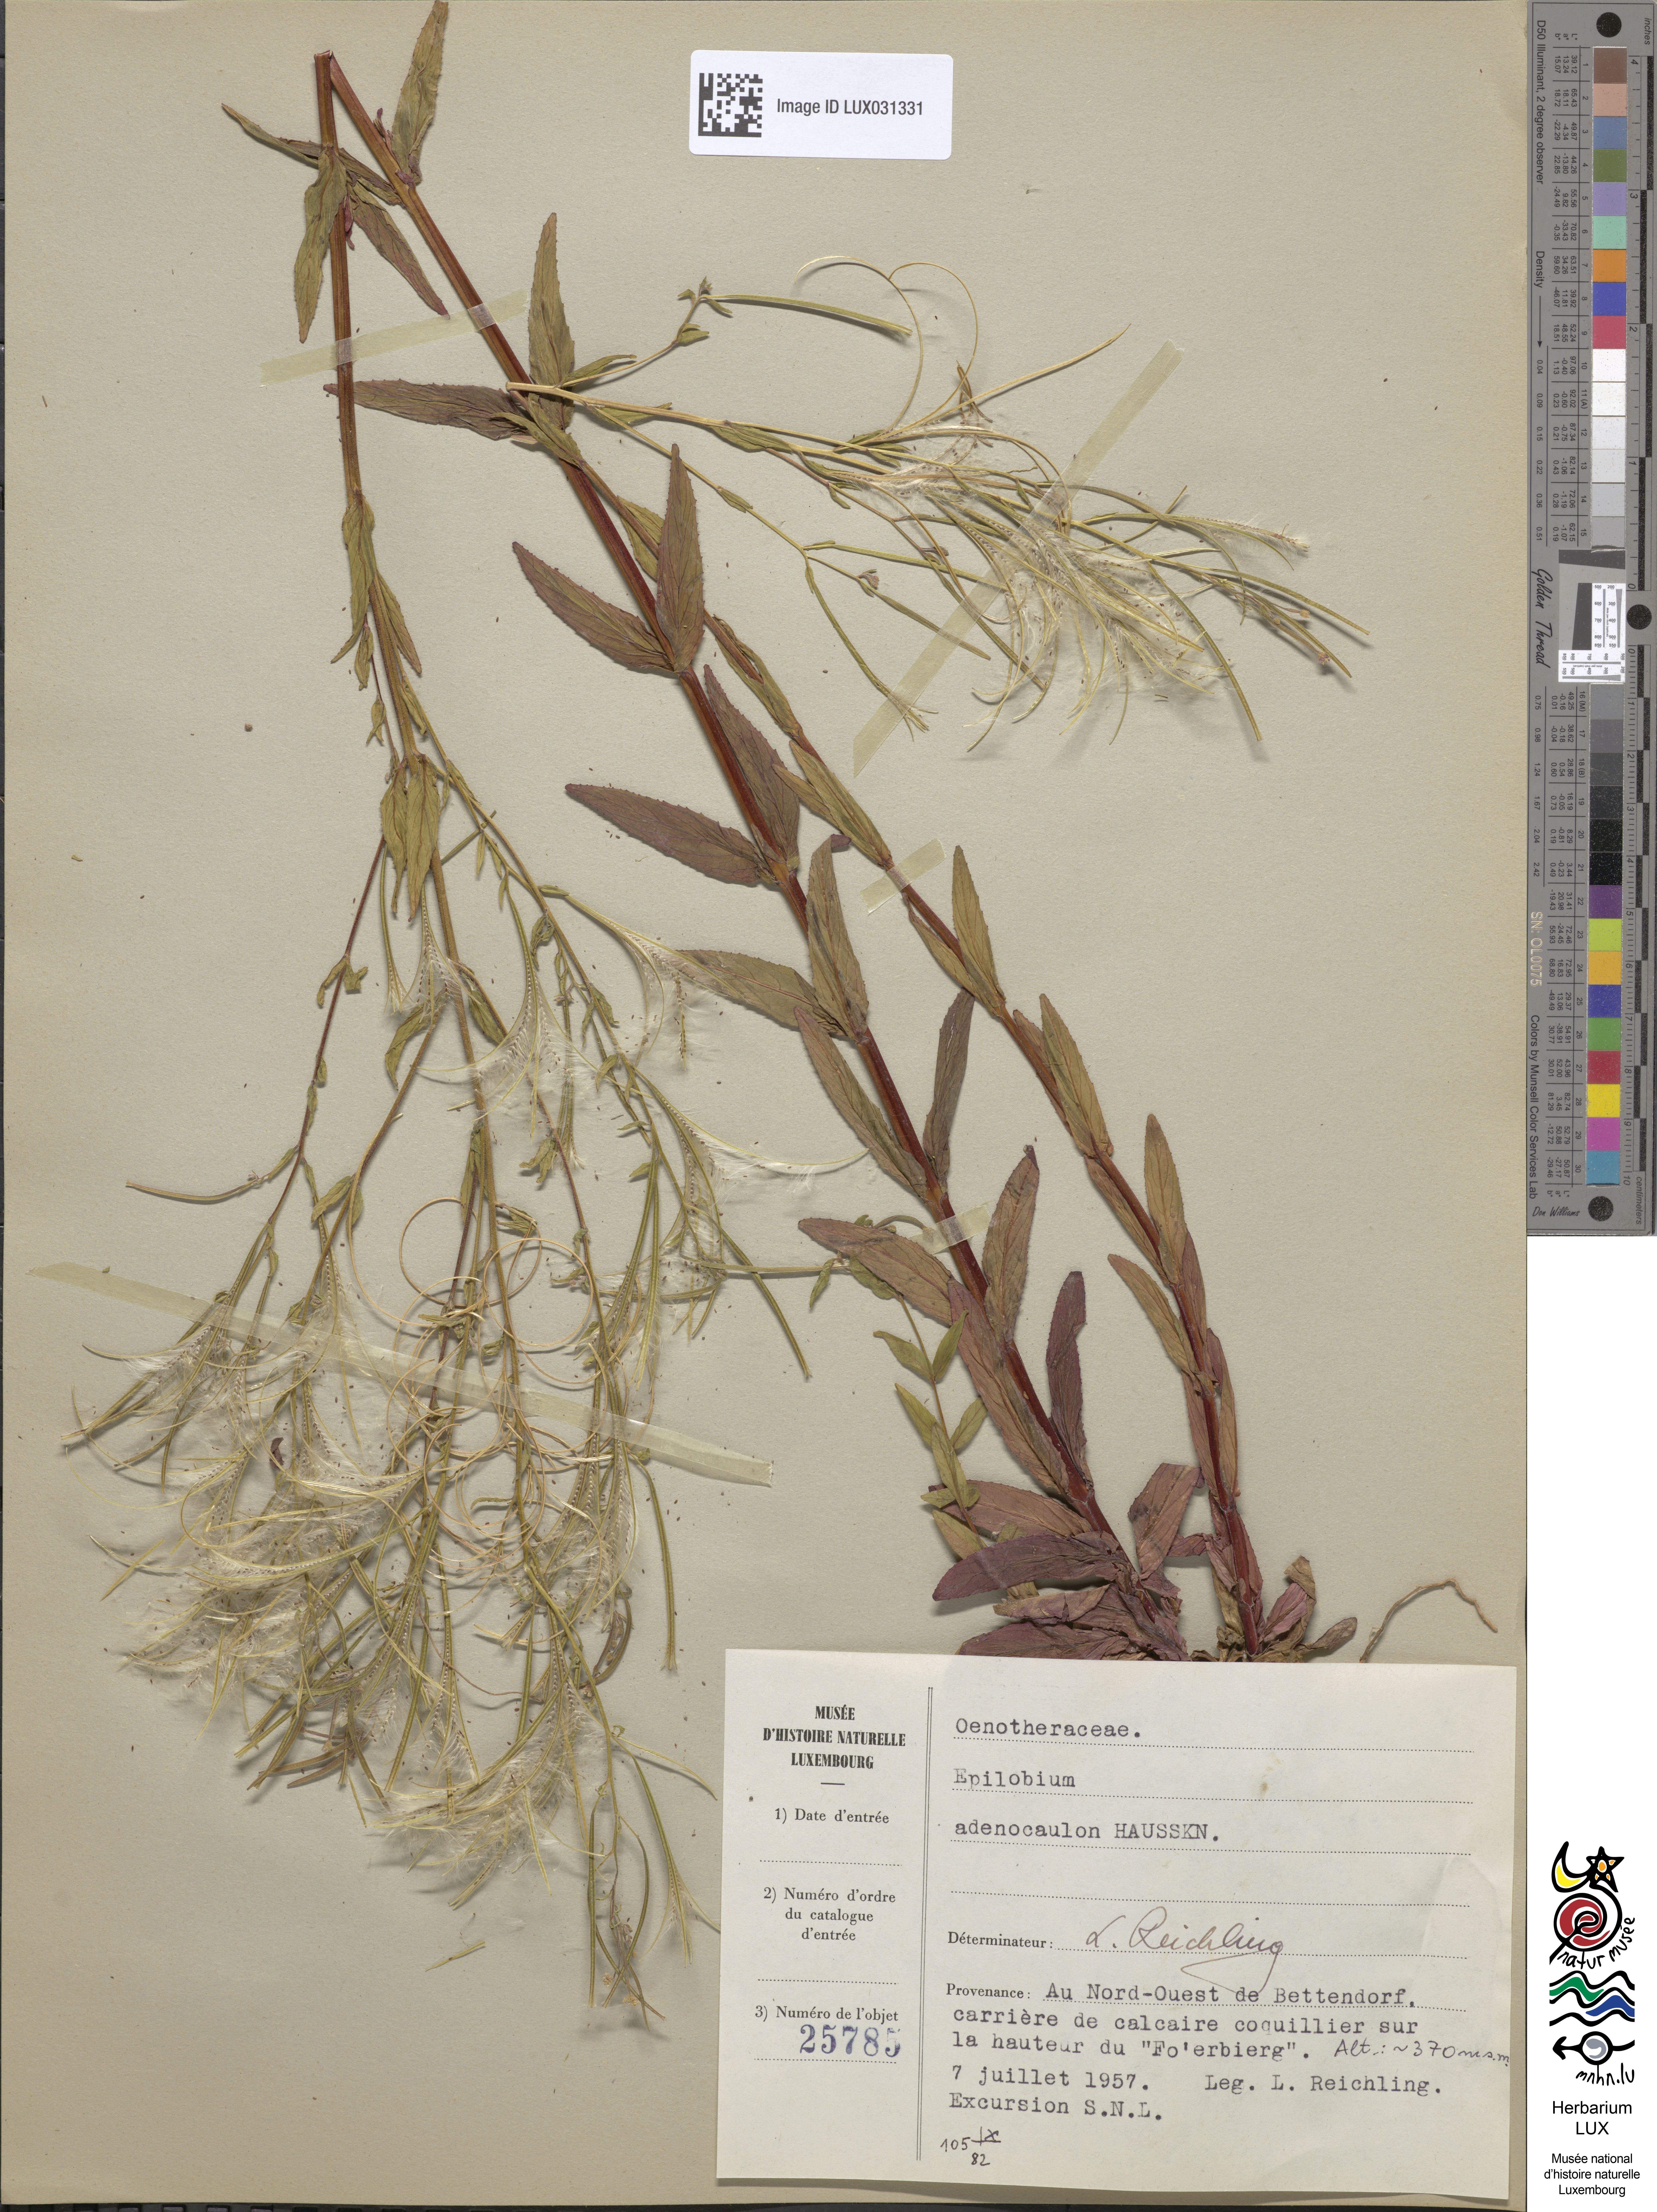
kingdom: Plantae
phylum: Tracheophyta
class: Magnoliopsida
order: Myrtales
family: Onagraceae
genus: Epilobium
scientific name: Epilobium ciliatum
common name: American willowherb
